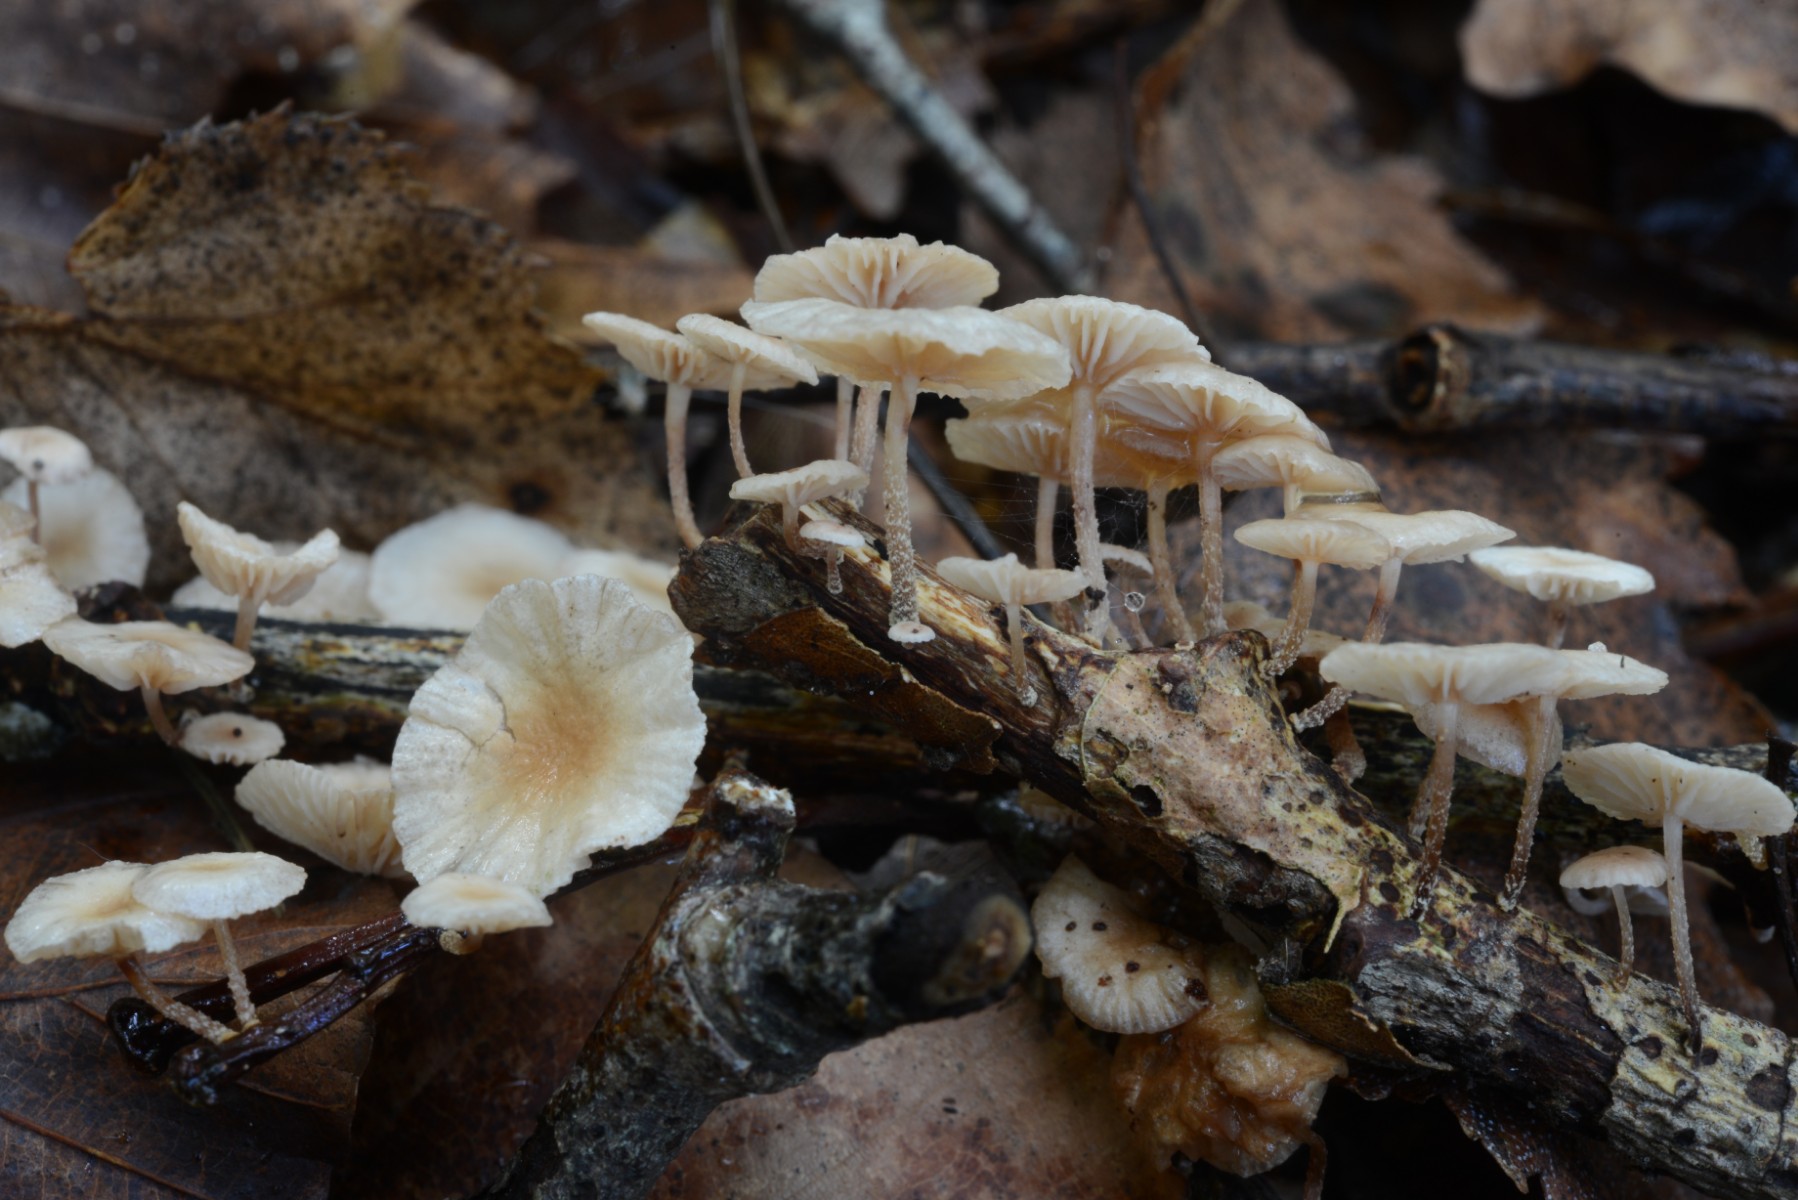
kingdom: Fungi
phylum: Basidiomycota
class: Agaricomycetes
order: Agaricales
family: Omphalotaceae
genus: Collybiopsis
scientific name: Collybiopsis ramealis
